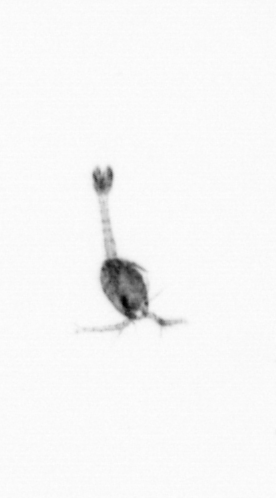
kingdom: Animalia
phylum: Arthropoda
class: Copepoda
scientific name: Copepoda
